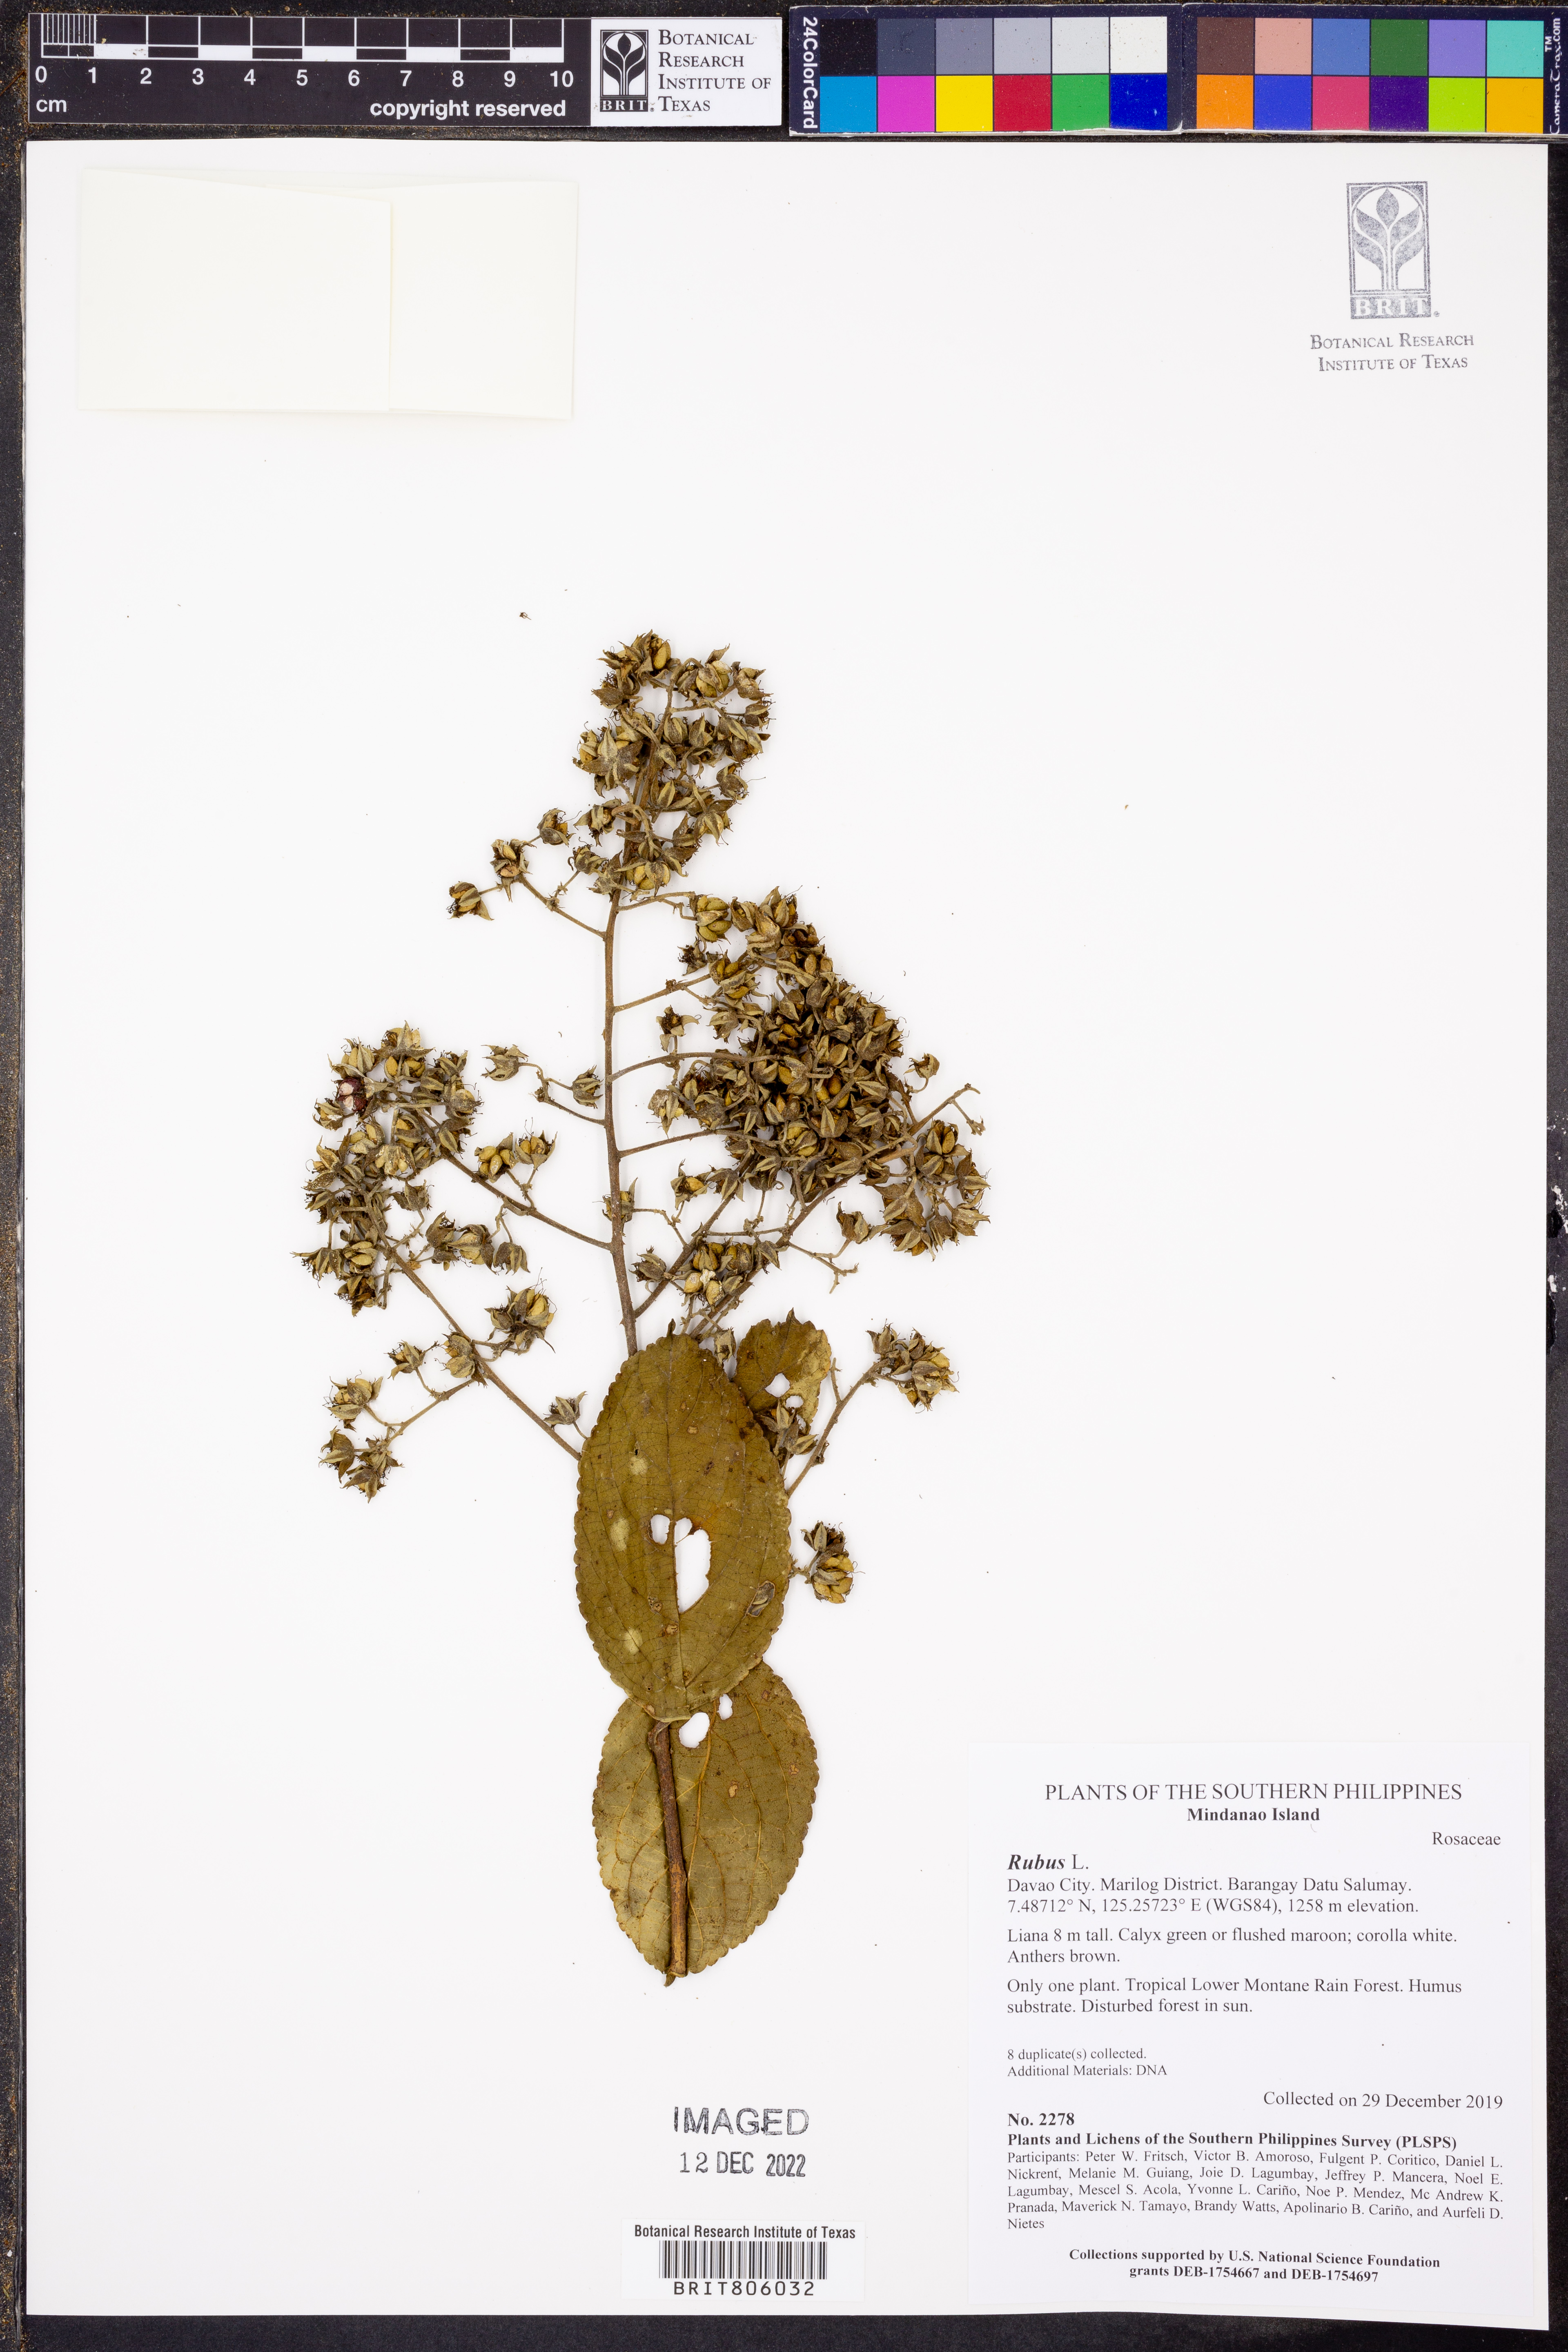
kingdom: Plantae
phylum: Tracheophyta
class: Magnoliopsida
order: Rosales
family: Rosaceae
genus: Rubus
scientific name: Rubus
